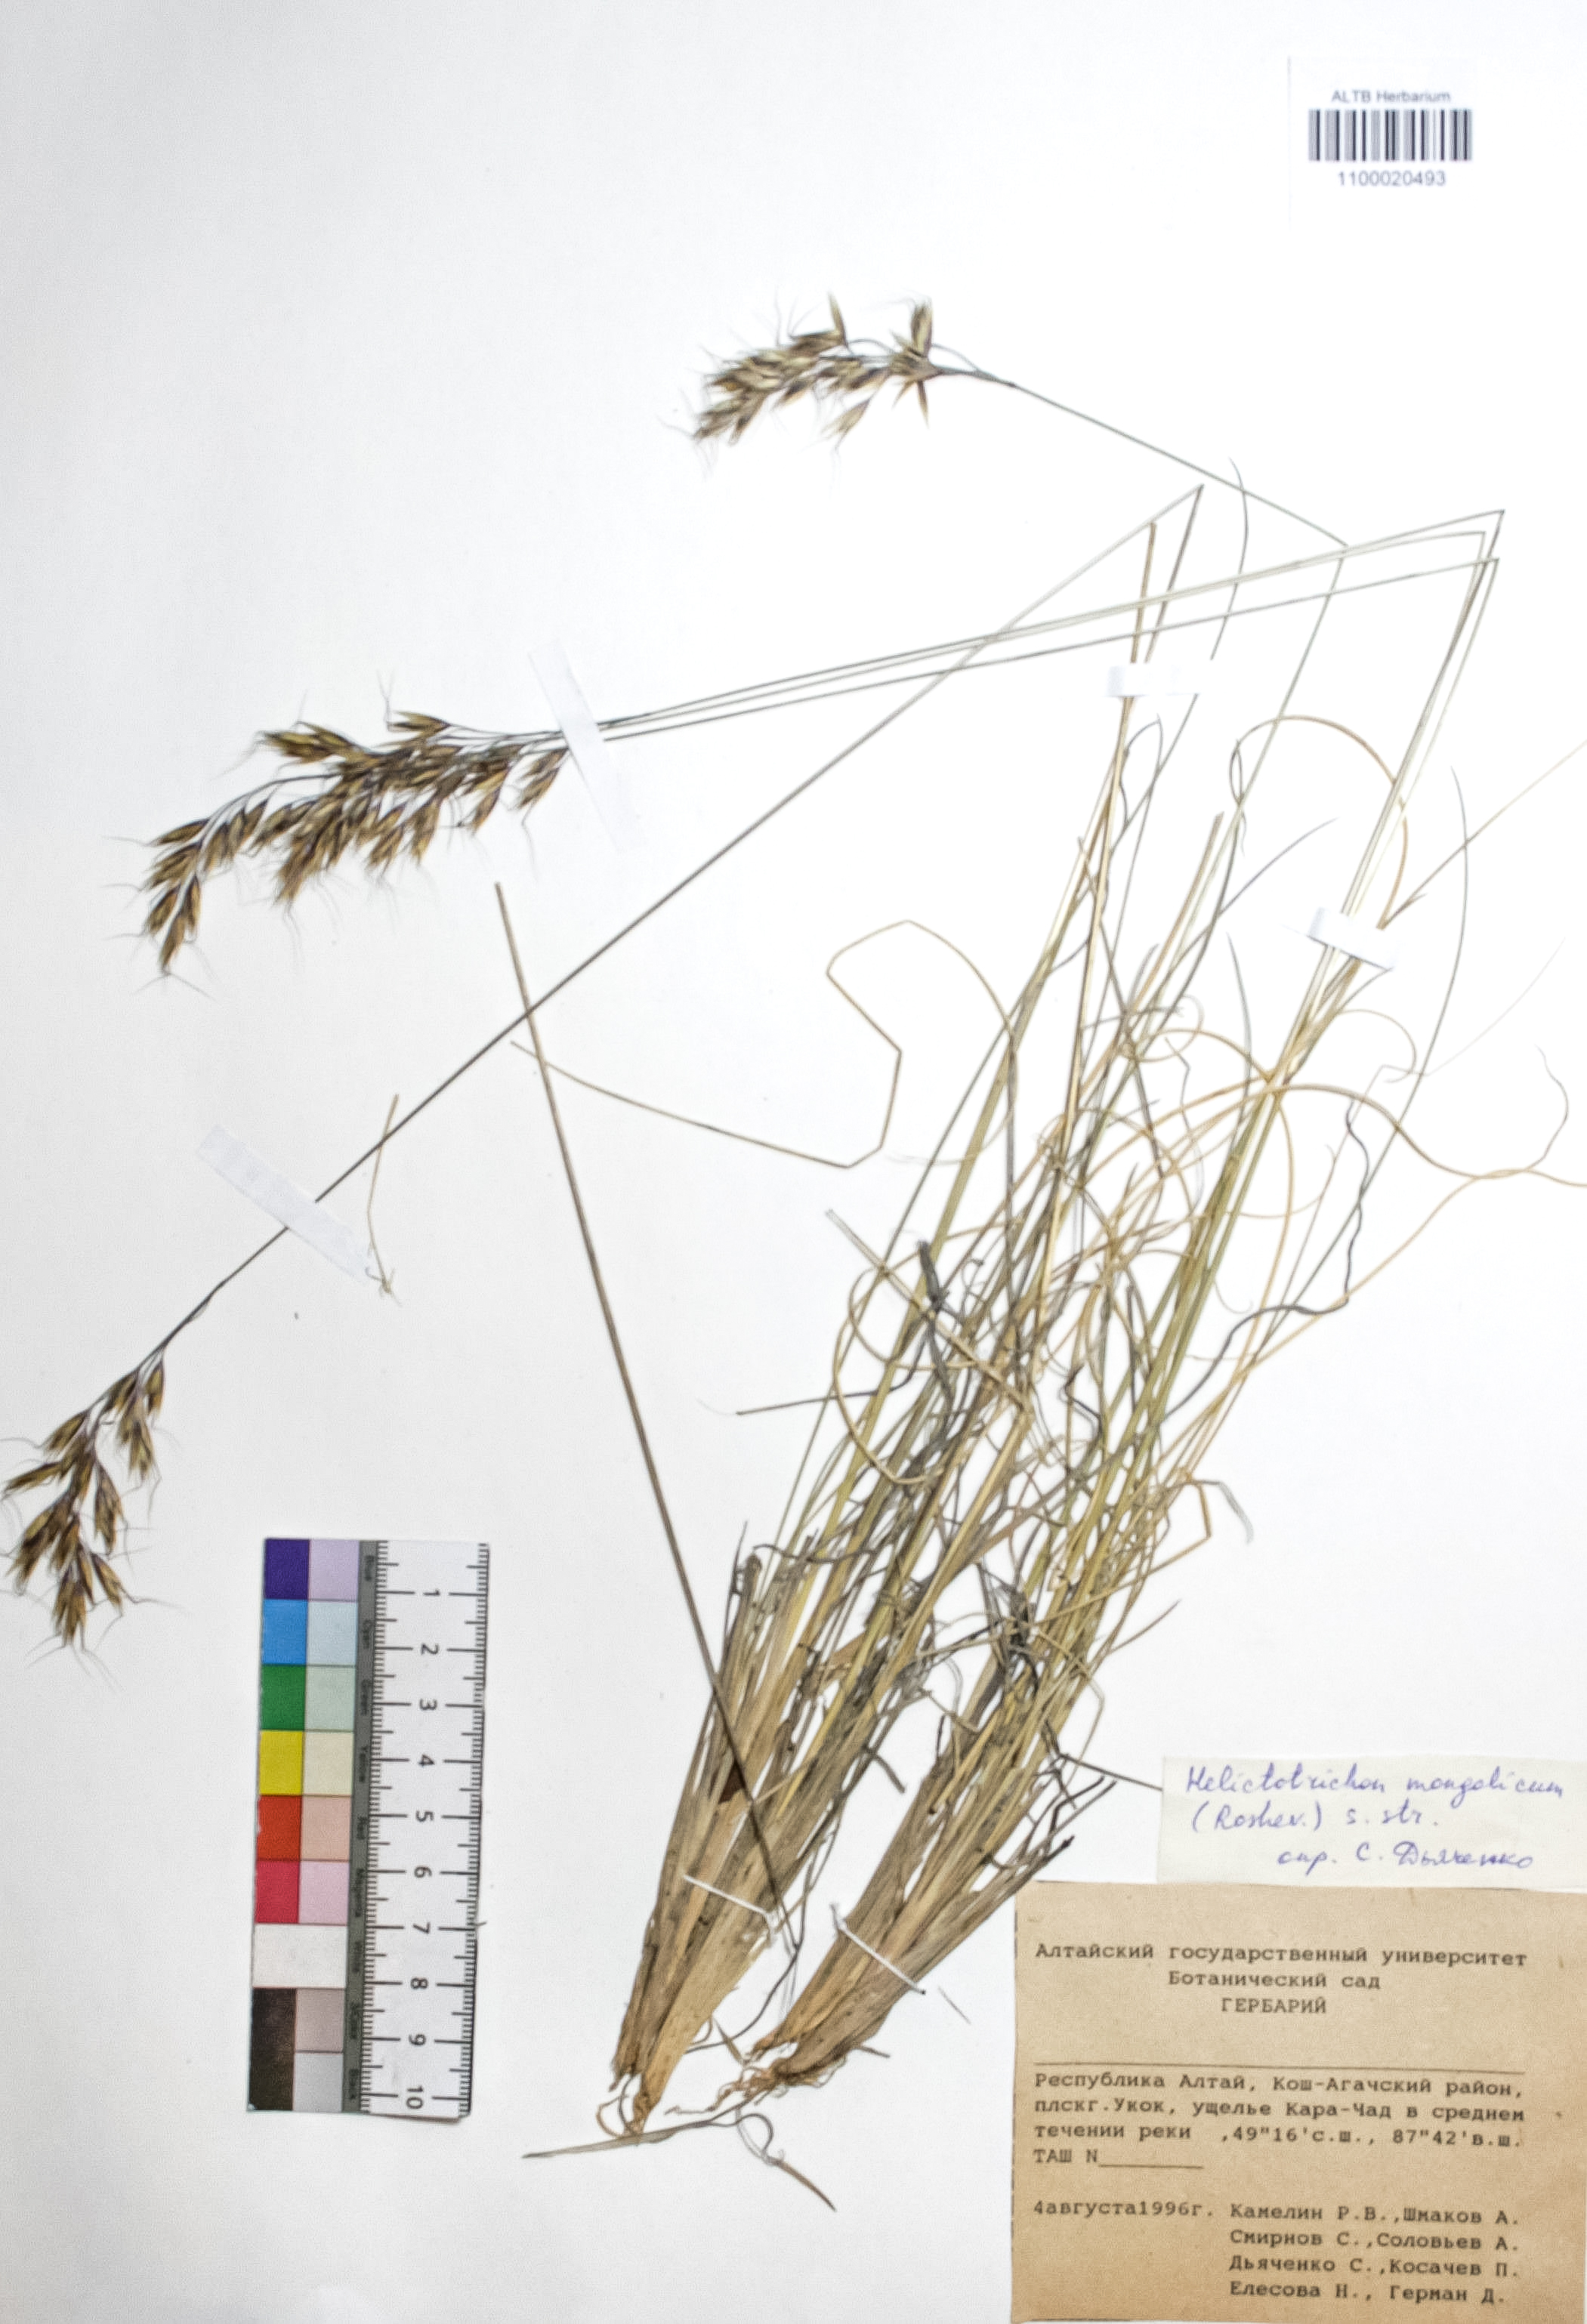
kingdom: Plantae
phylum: Tracheophyta
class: Liliopsida
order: Poales
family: Poaceae
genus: Helictotrichon
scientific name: Helictotrichon mongolicum
